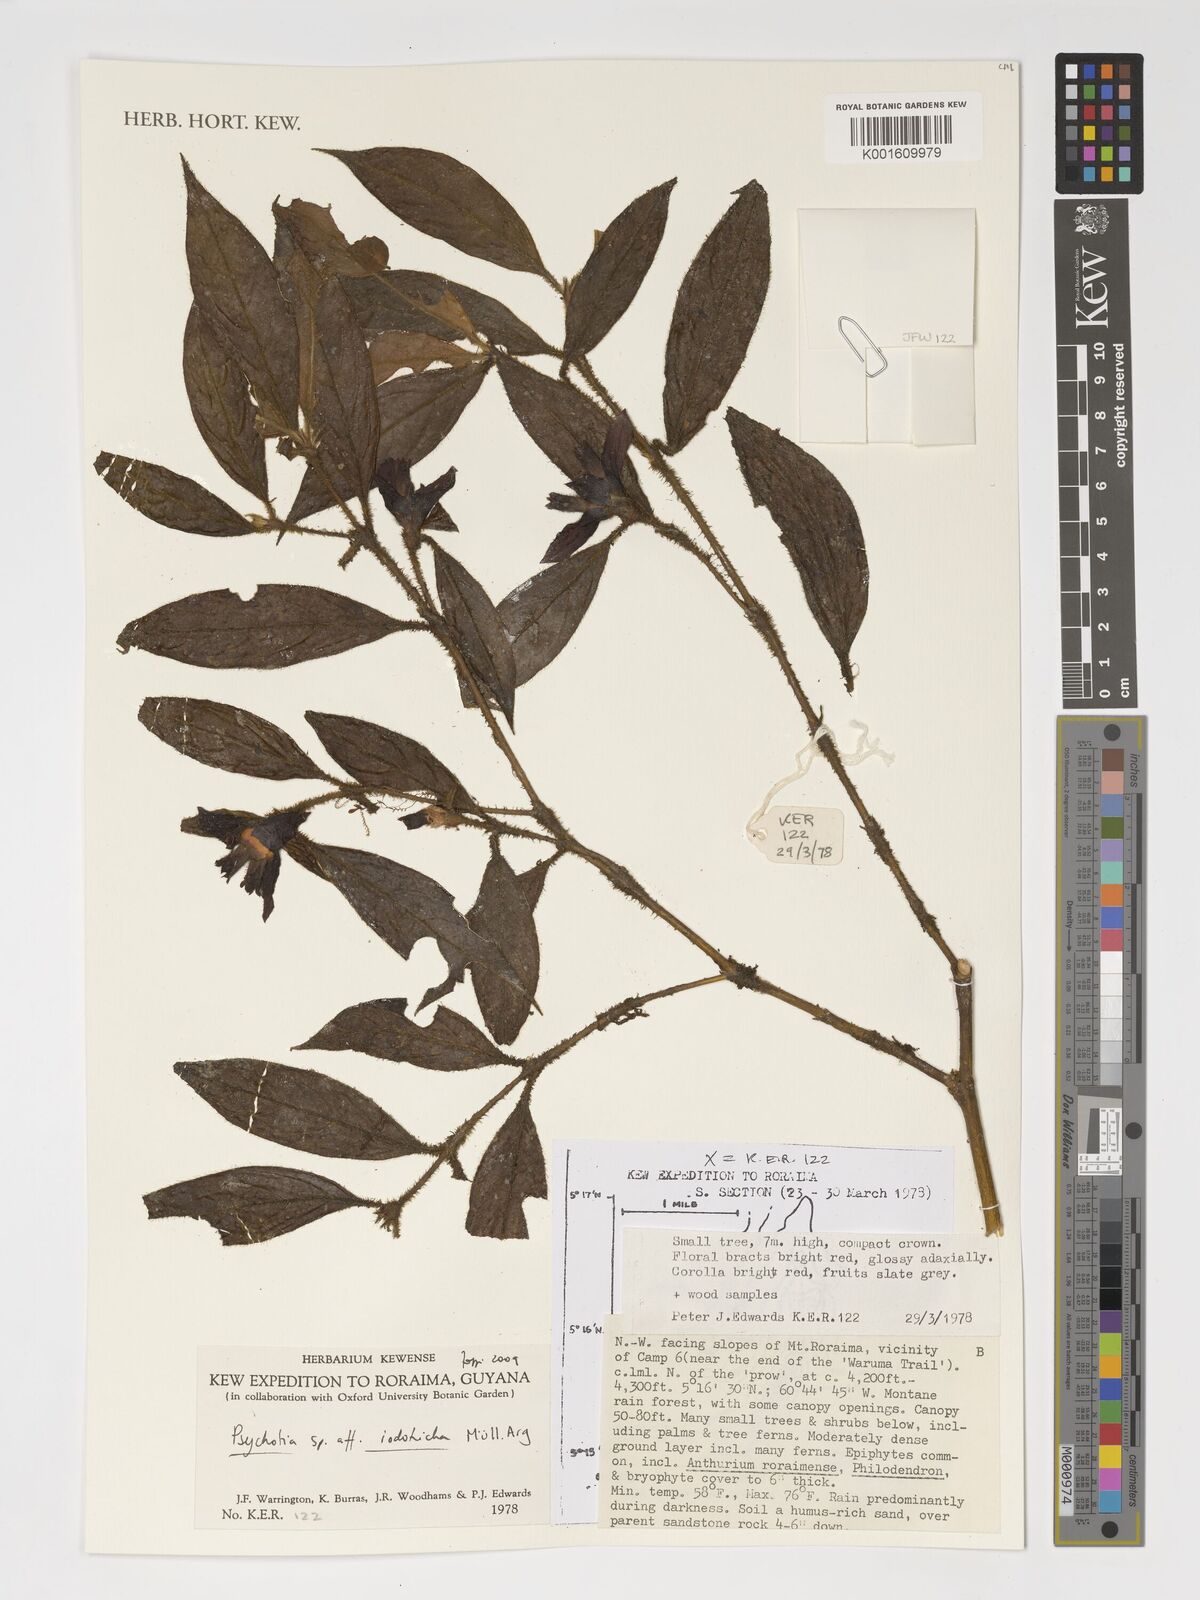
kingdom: Plantae
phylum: Tracheophyta
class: Magnoliopsida
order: Gentianales
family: Rubiaceae
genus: Palicourea
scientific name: Palicourea iodotricha
